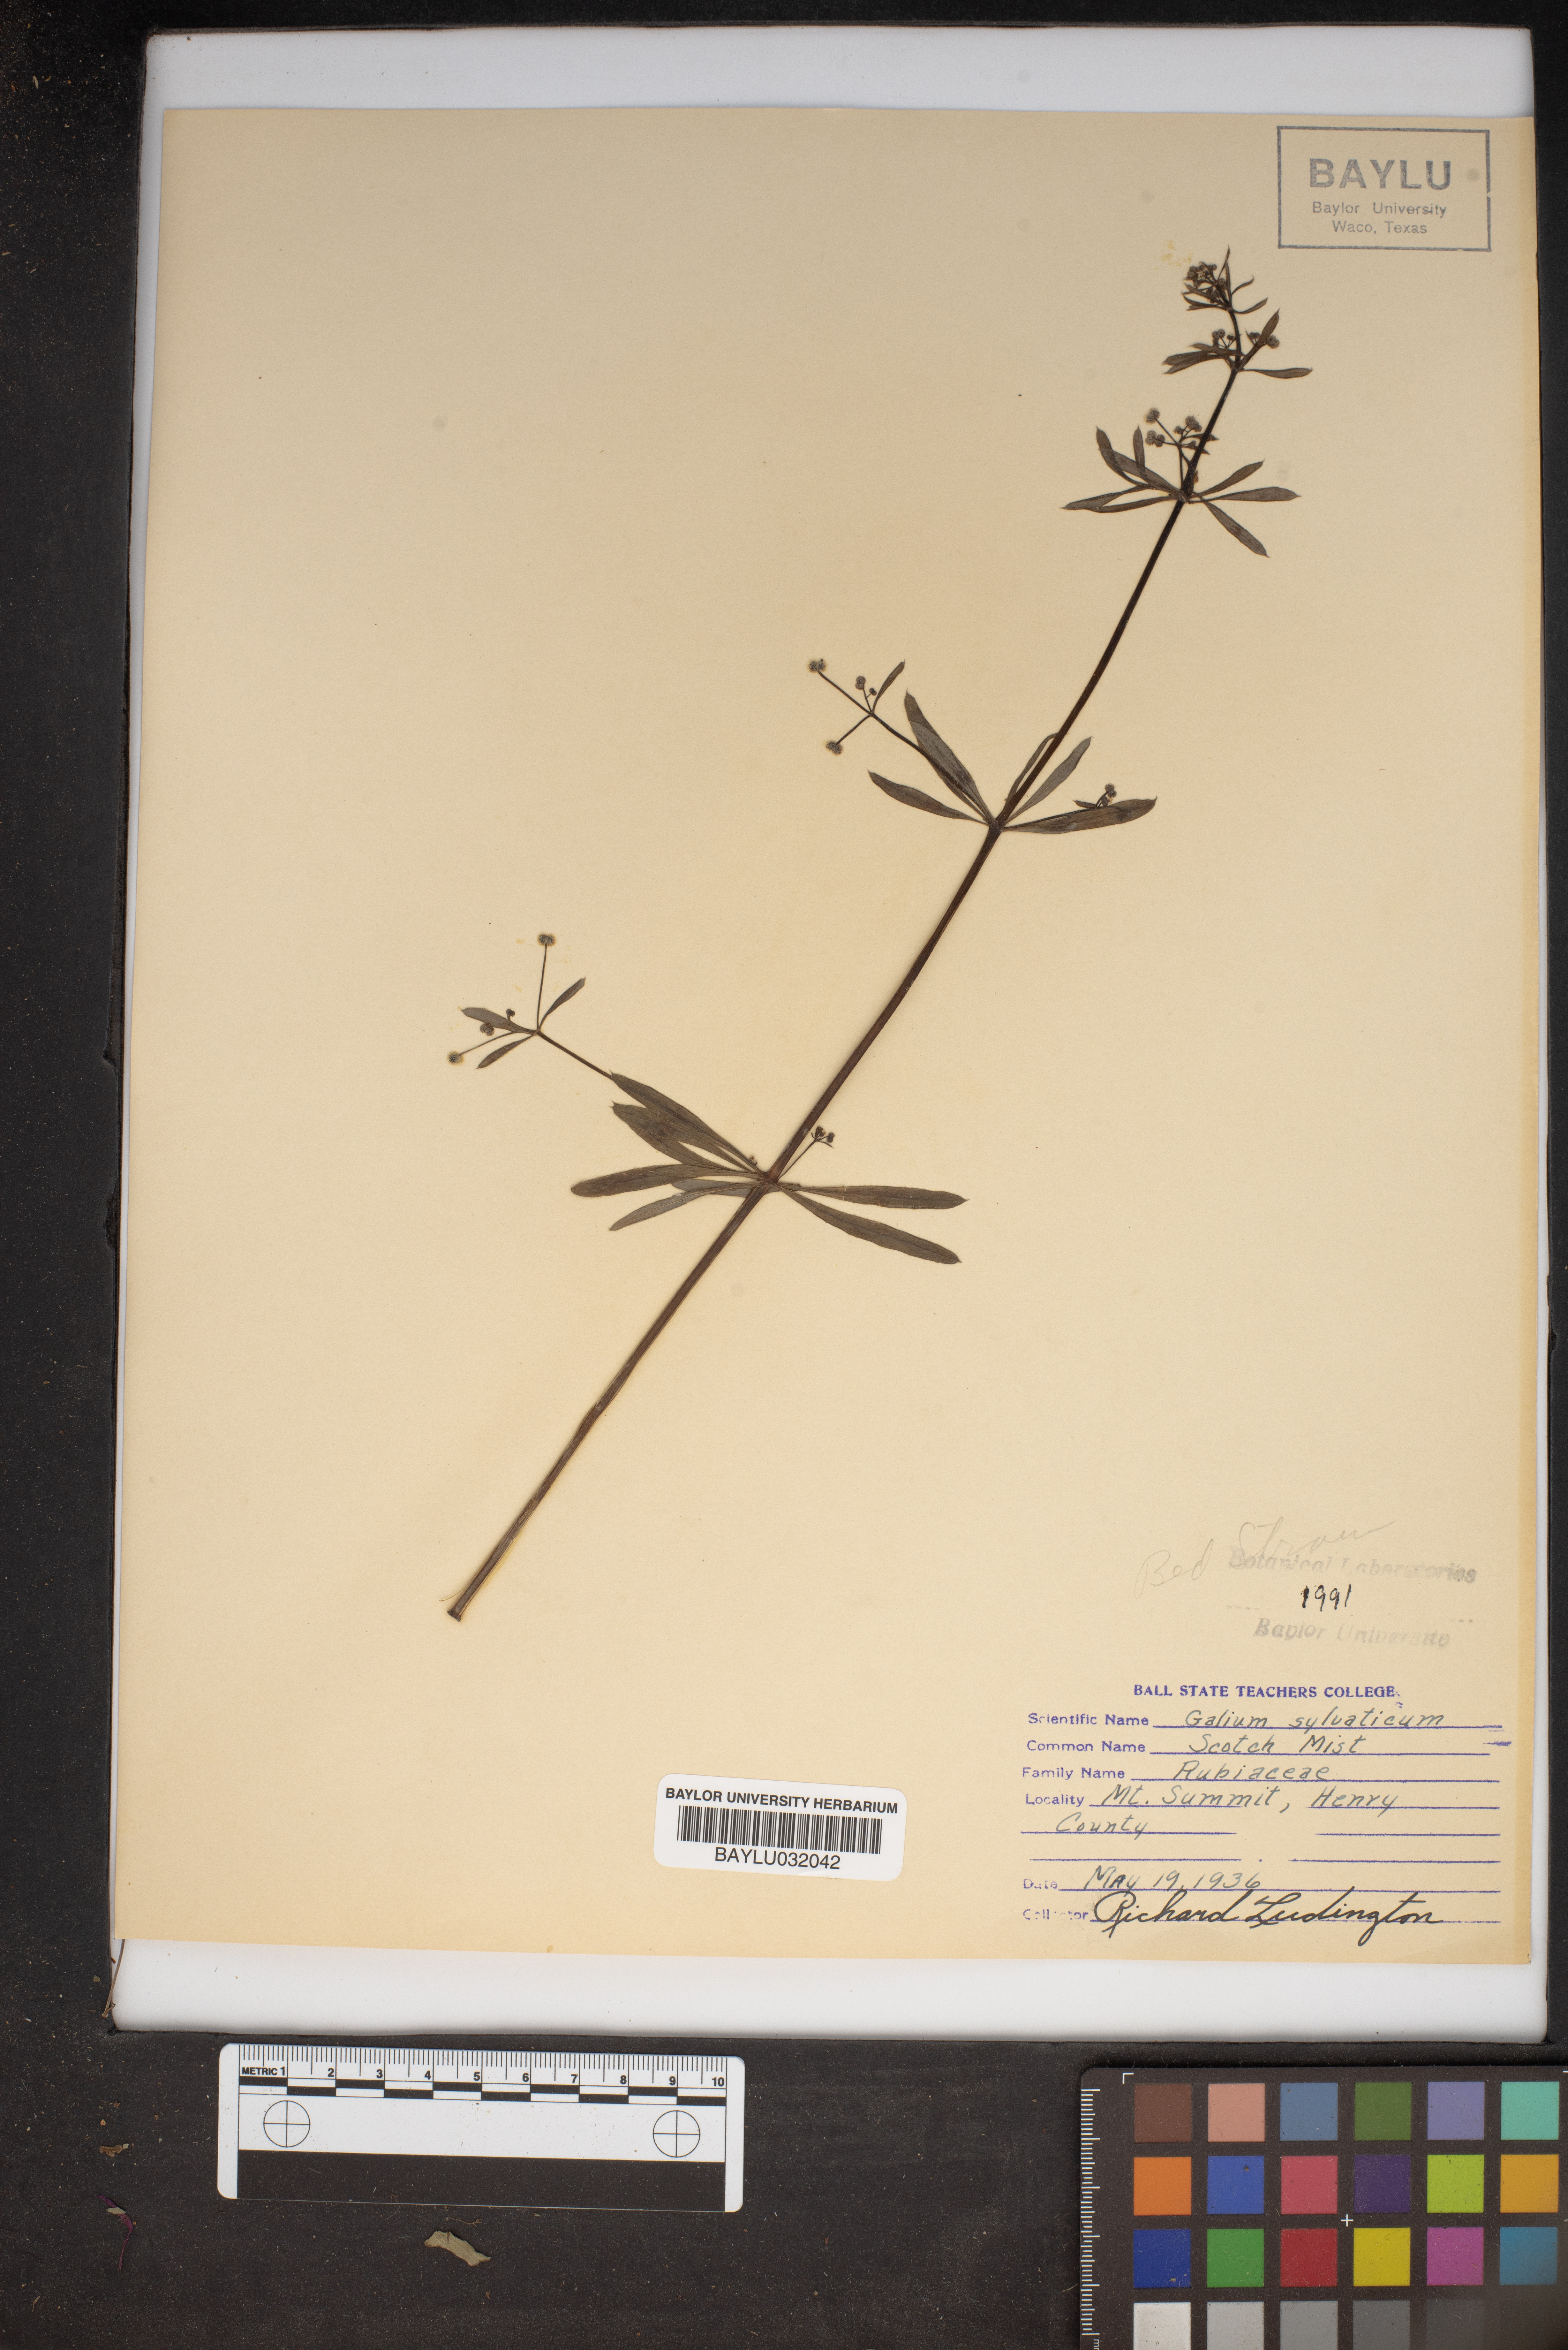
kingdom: Plantae
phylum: Tracheophyta
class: Magnoliopsida
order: Gentianales
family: Rubiaceae
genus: Galium
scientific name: Galium sylvaticum
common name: Wood bedstraw
